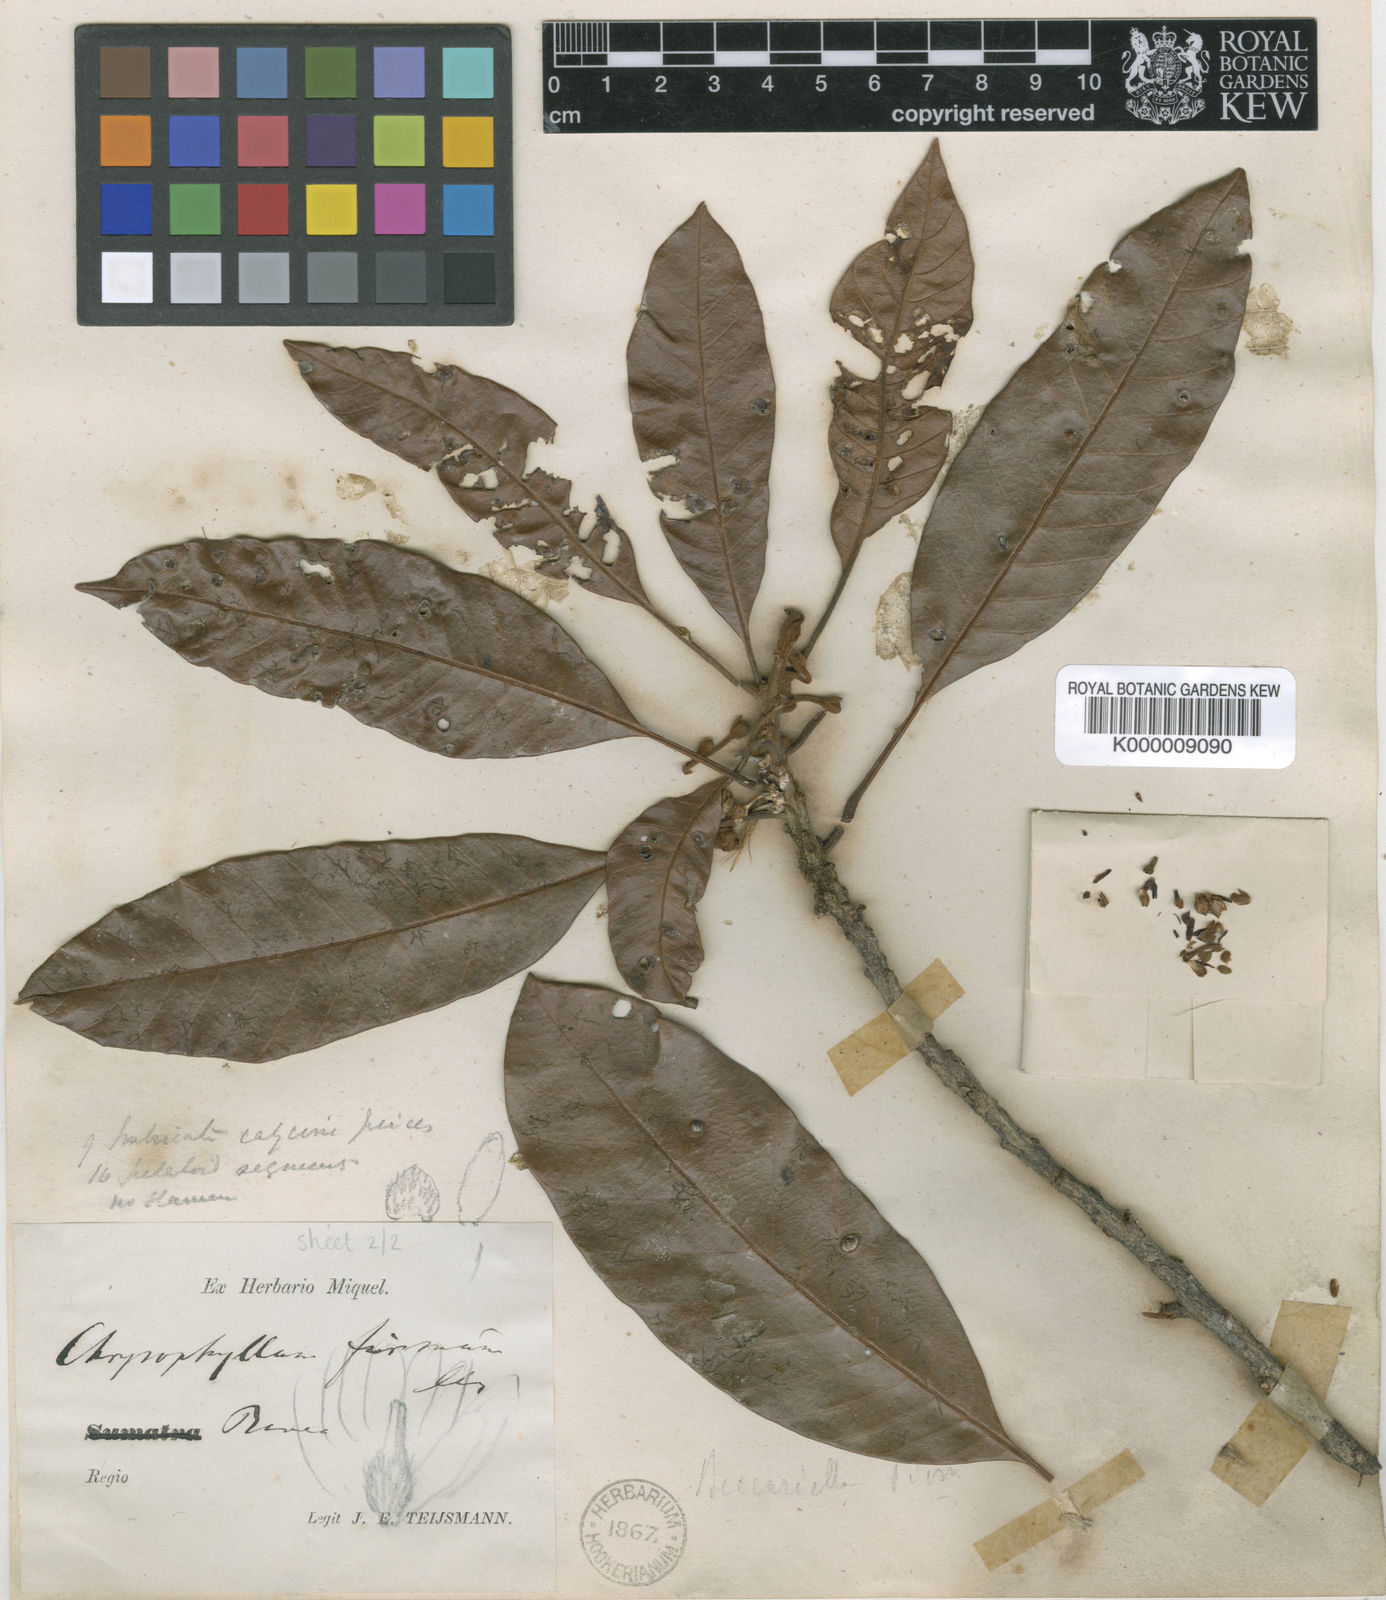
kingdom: Plantae
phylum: Tracheophyta
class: Magnoliopsida
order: Ericales
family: Sapotaceae
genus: Pleioluma
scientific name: Pleioluma firma
